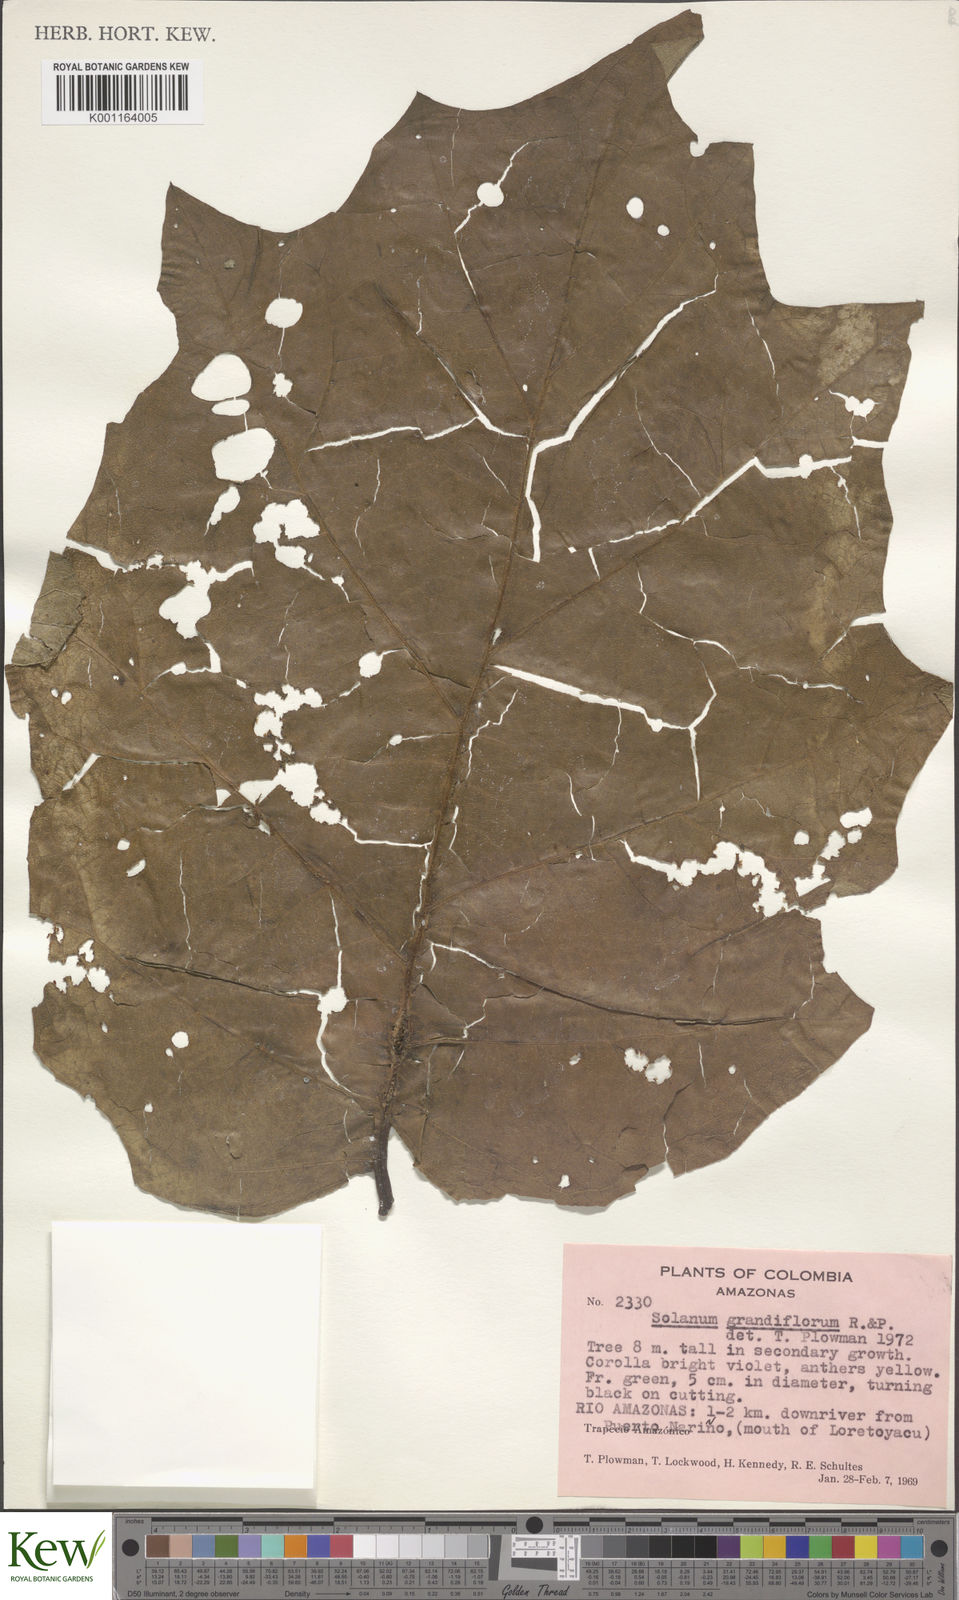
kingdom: Plantae
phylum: Tracheophyta
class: Magnoliopsida
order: Solanales
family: Solanaceae
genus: Solanum
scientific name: Solanum grandiflorum
